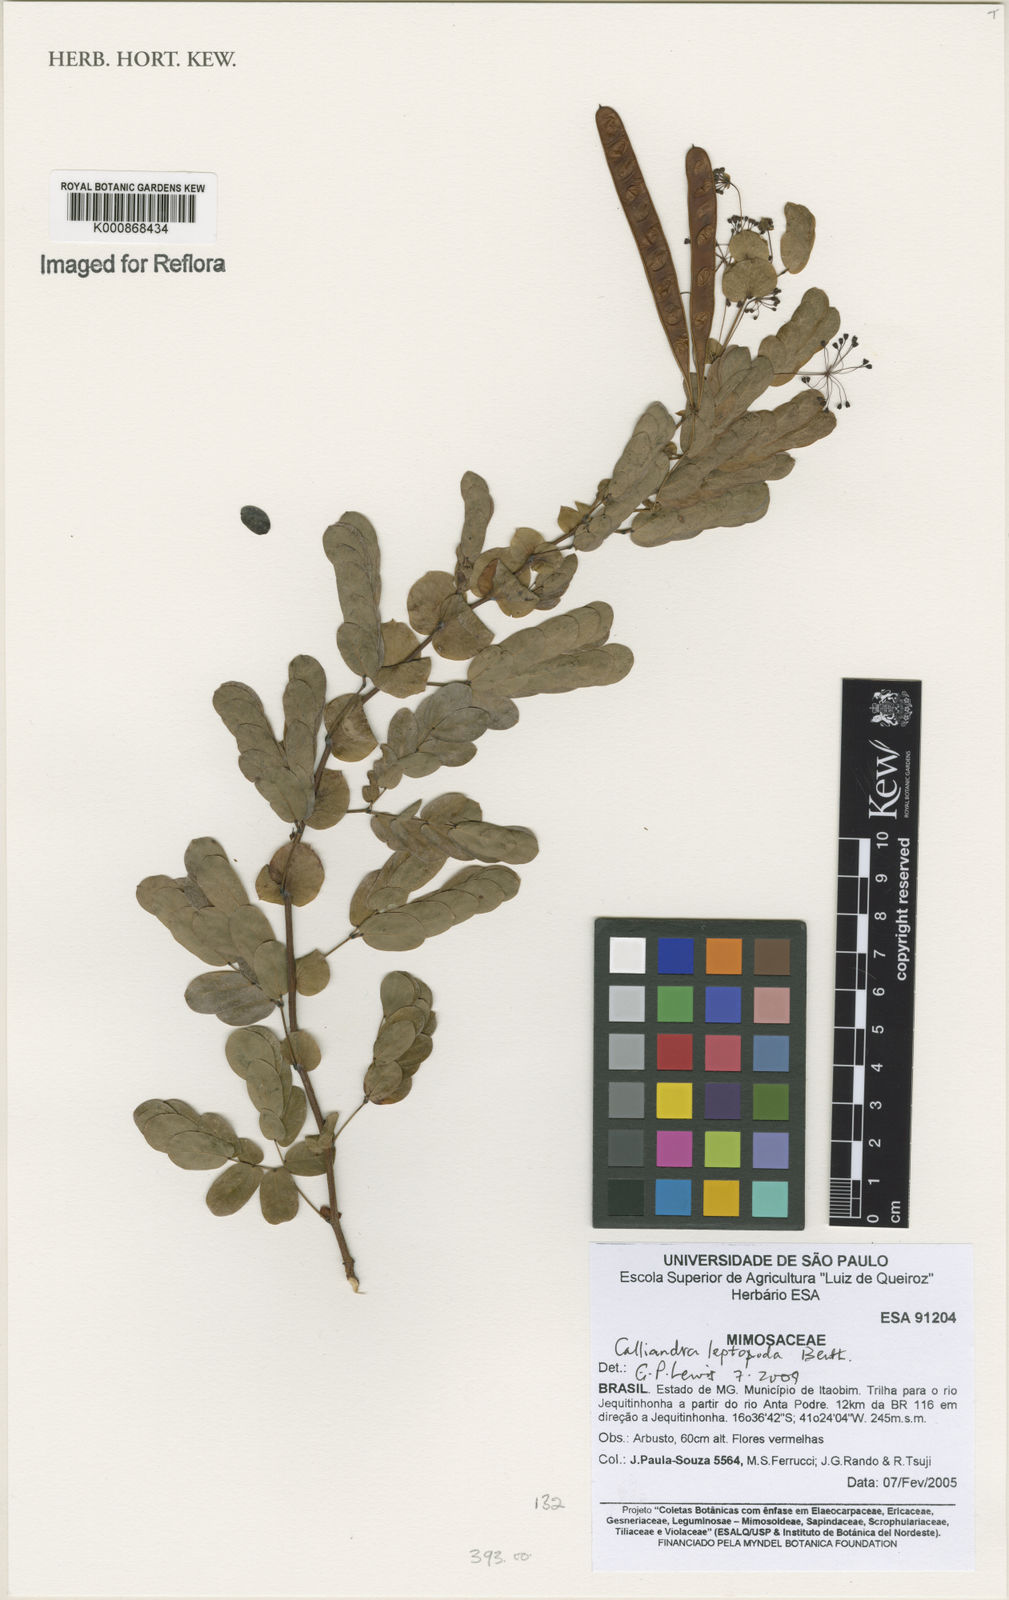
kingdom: Plantae
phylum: Tracheophyta
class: Magnoliopsida
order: Fabales
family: Fabaceae
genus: Calliandra
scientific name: Calliandra leptopoda
